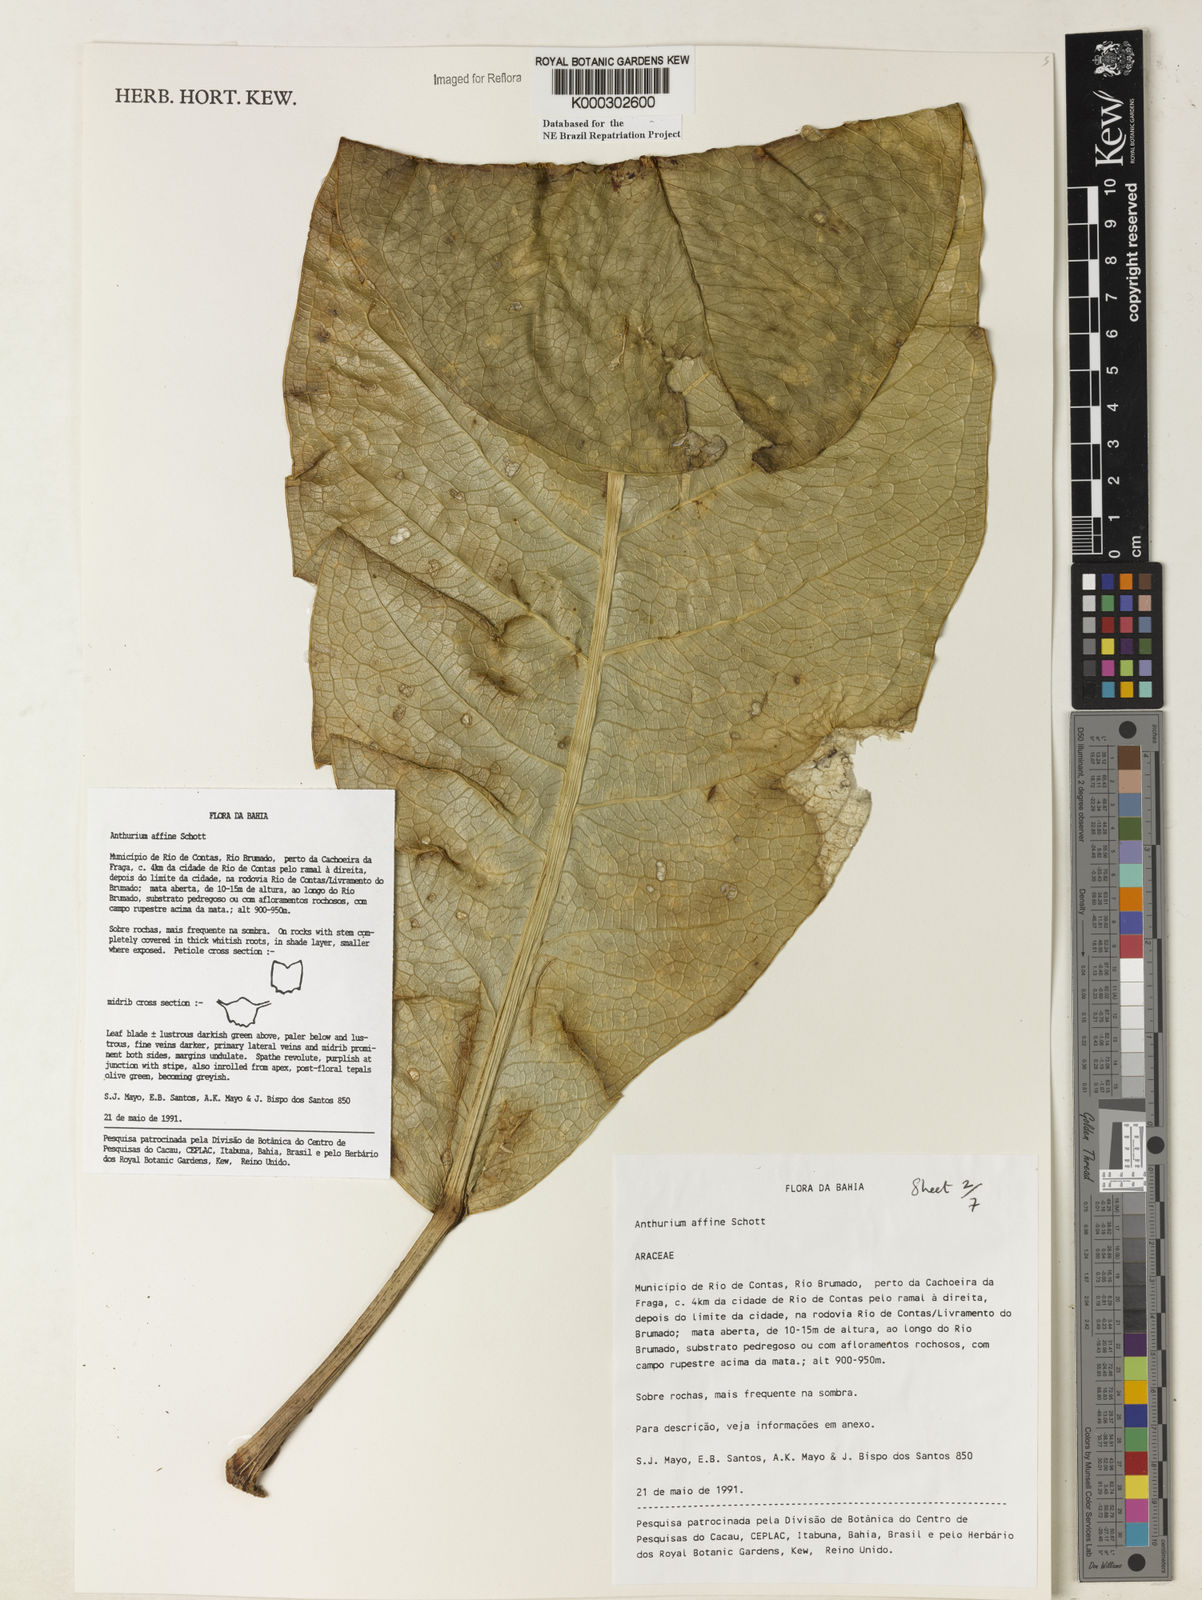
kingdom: Plantae
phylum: Tracheophyta
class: Liliopsida
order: Alismatales
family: Araceae
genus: Anthurium
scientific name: Anthurium affine
